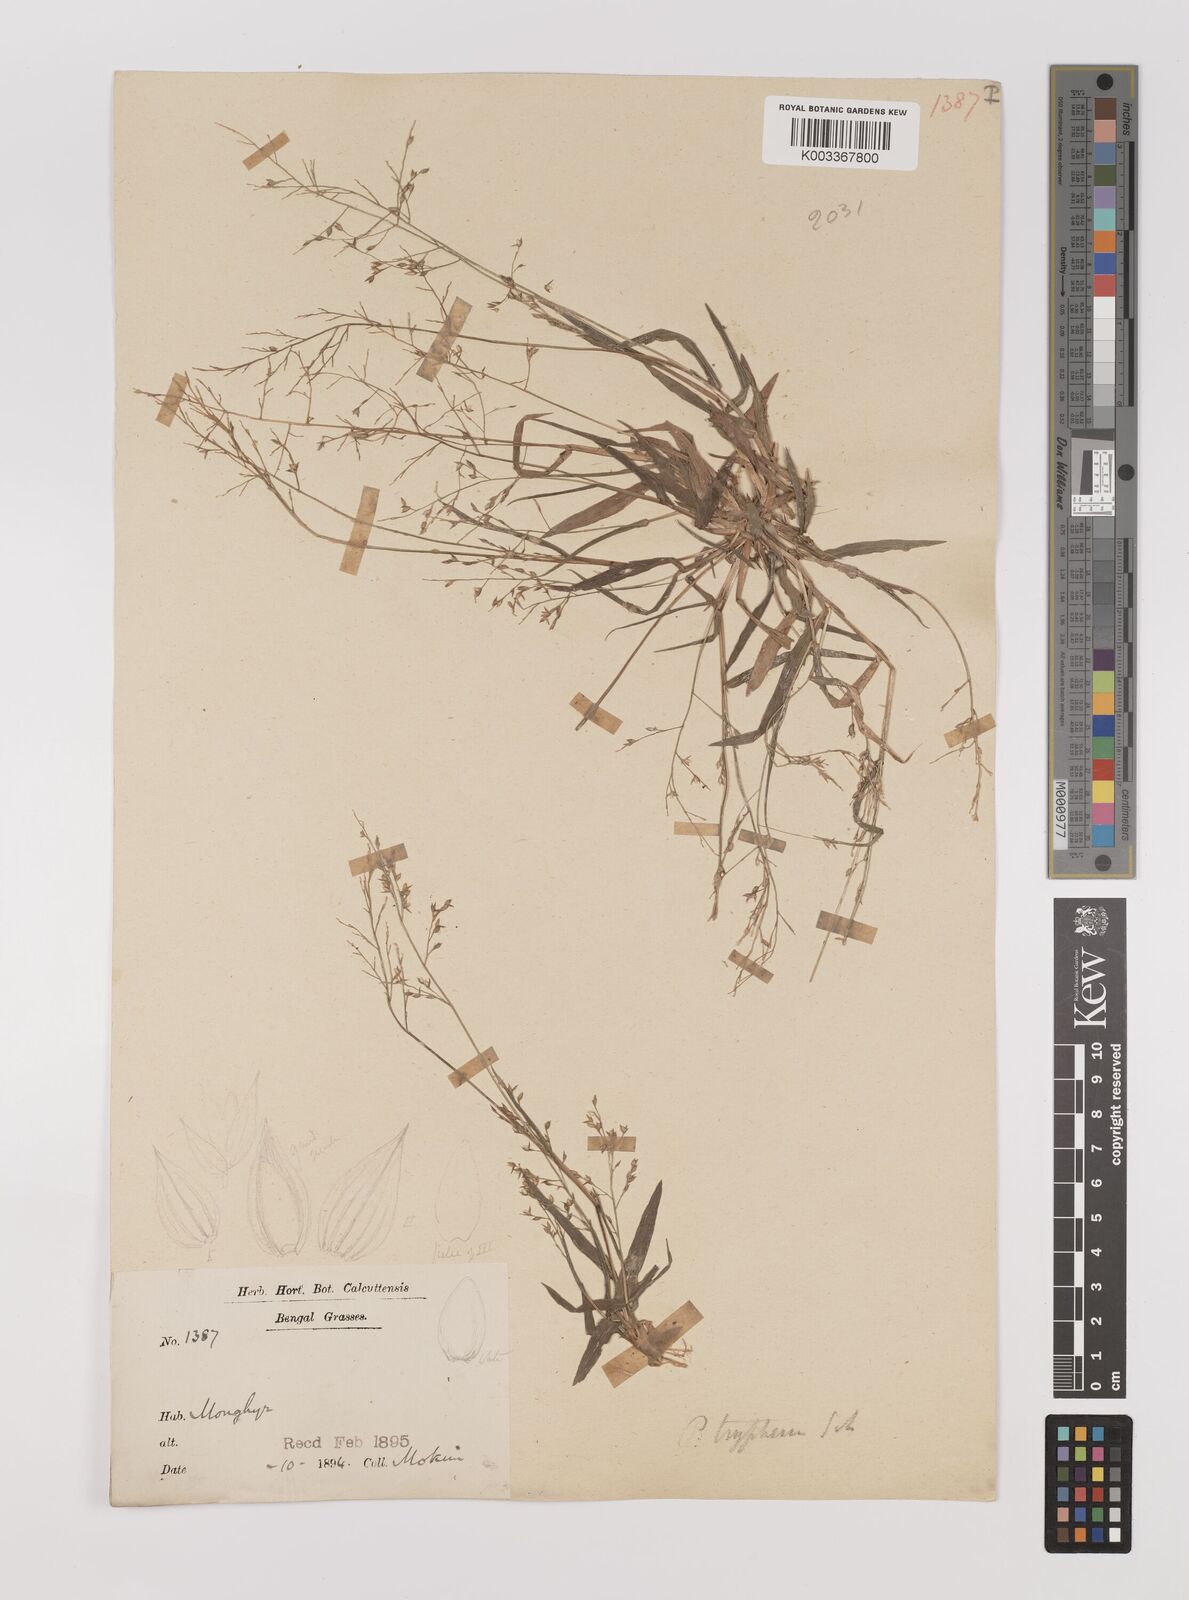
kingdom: Plantae
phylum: Tracheophyta
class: Liliopsida
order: Poales
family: Poaceae
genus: Panicum
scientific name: Panicum curviflorum
